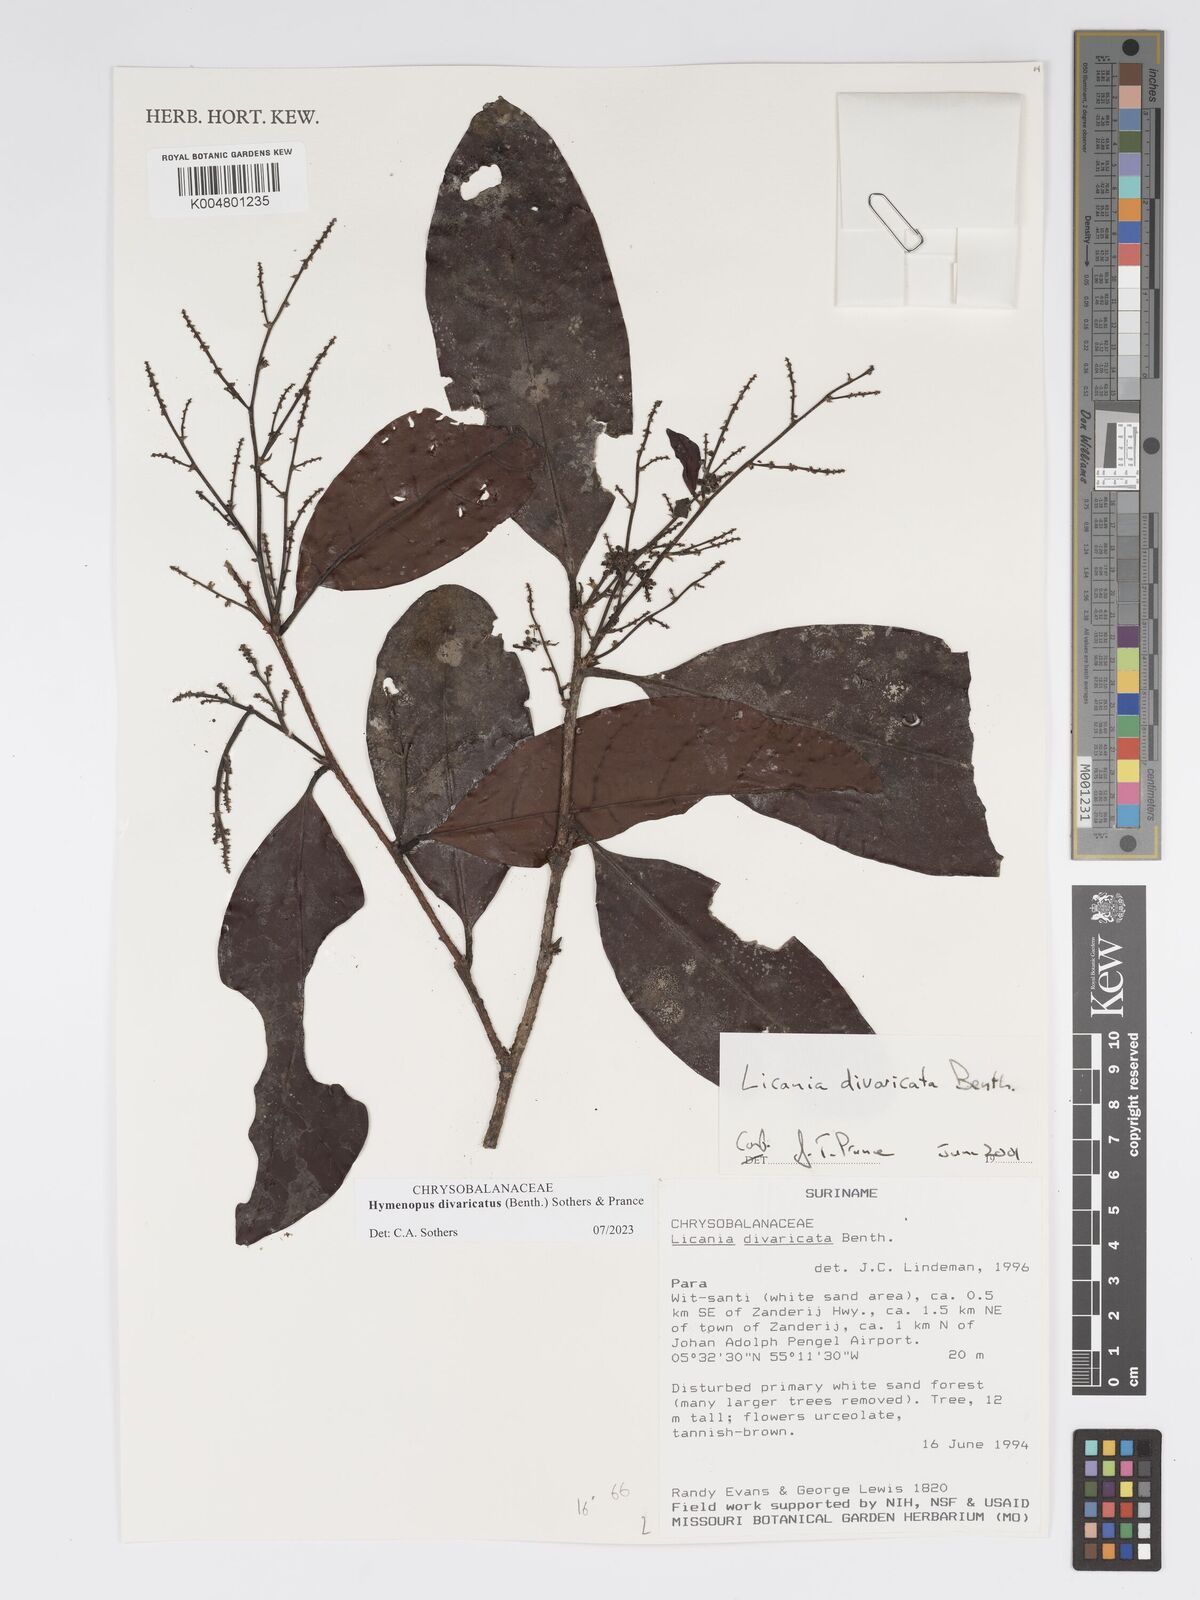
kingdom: Plantae
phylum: Tracheophyta
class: Magnoliopsida
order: Malpighiales
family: Chrysobalanaceae
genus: Hymenopus
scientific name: Hymenopus divaricatus
